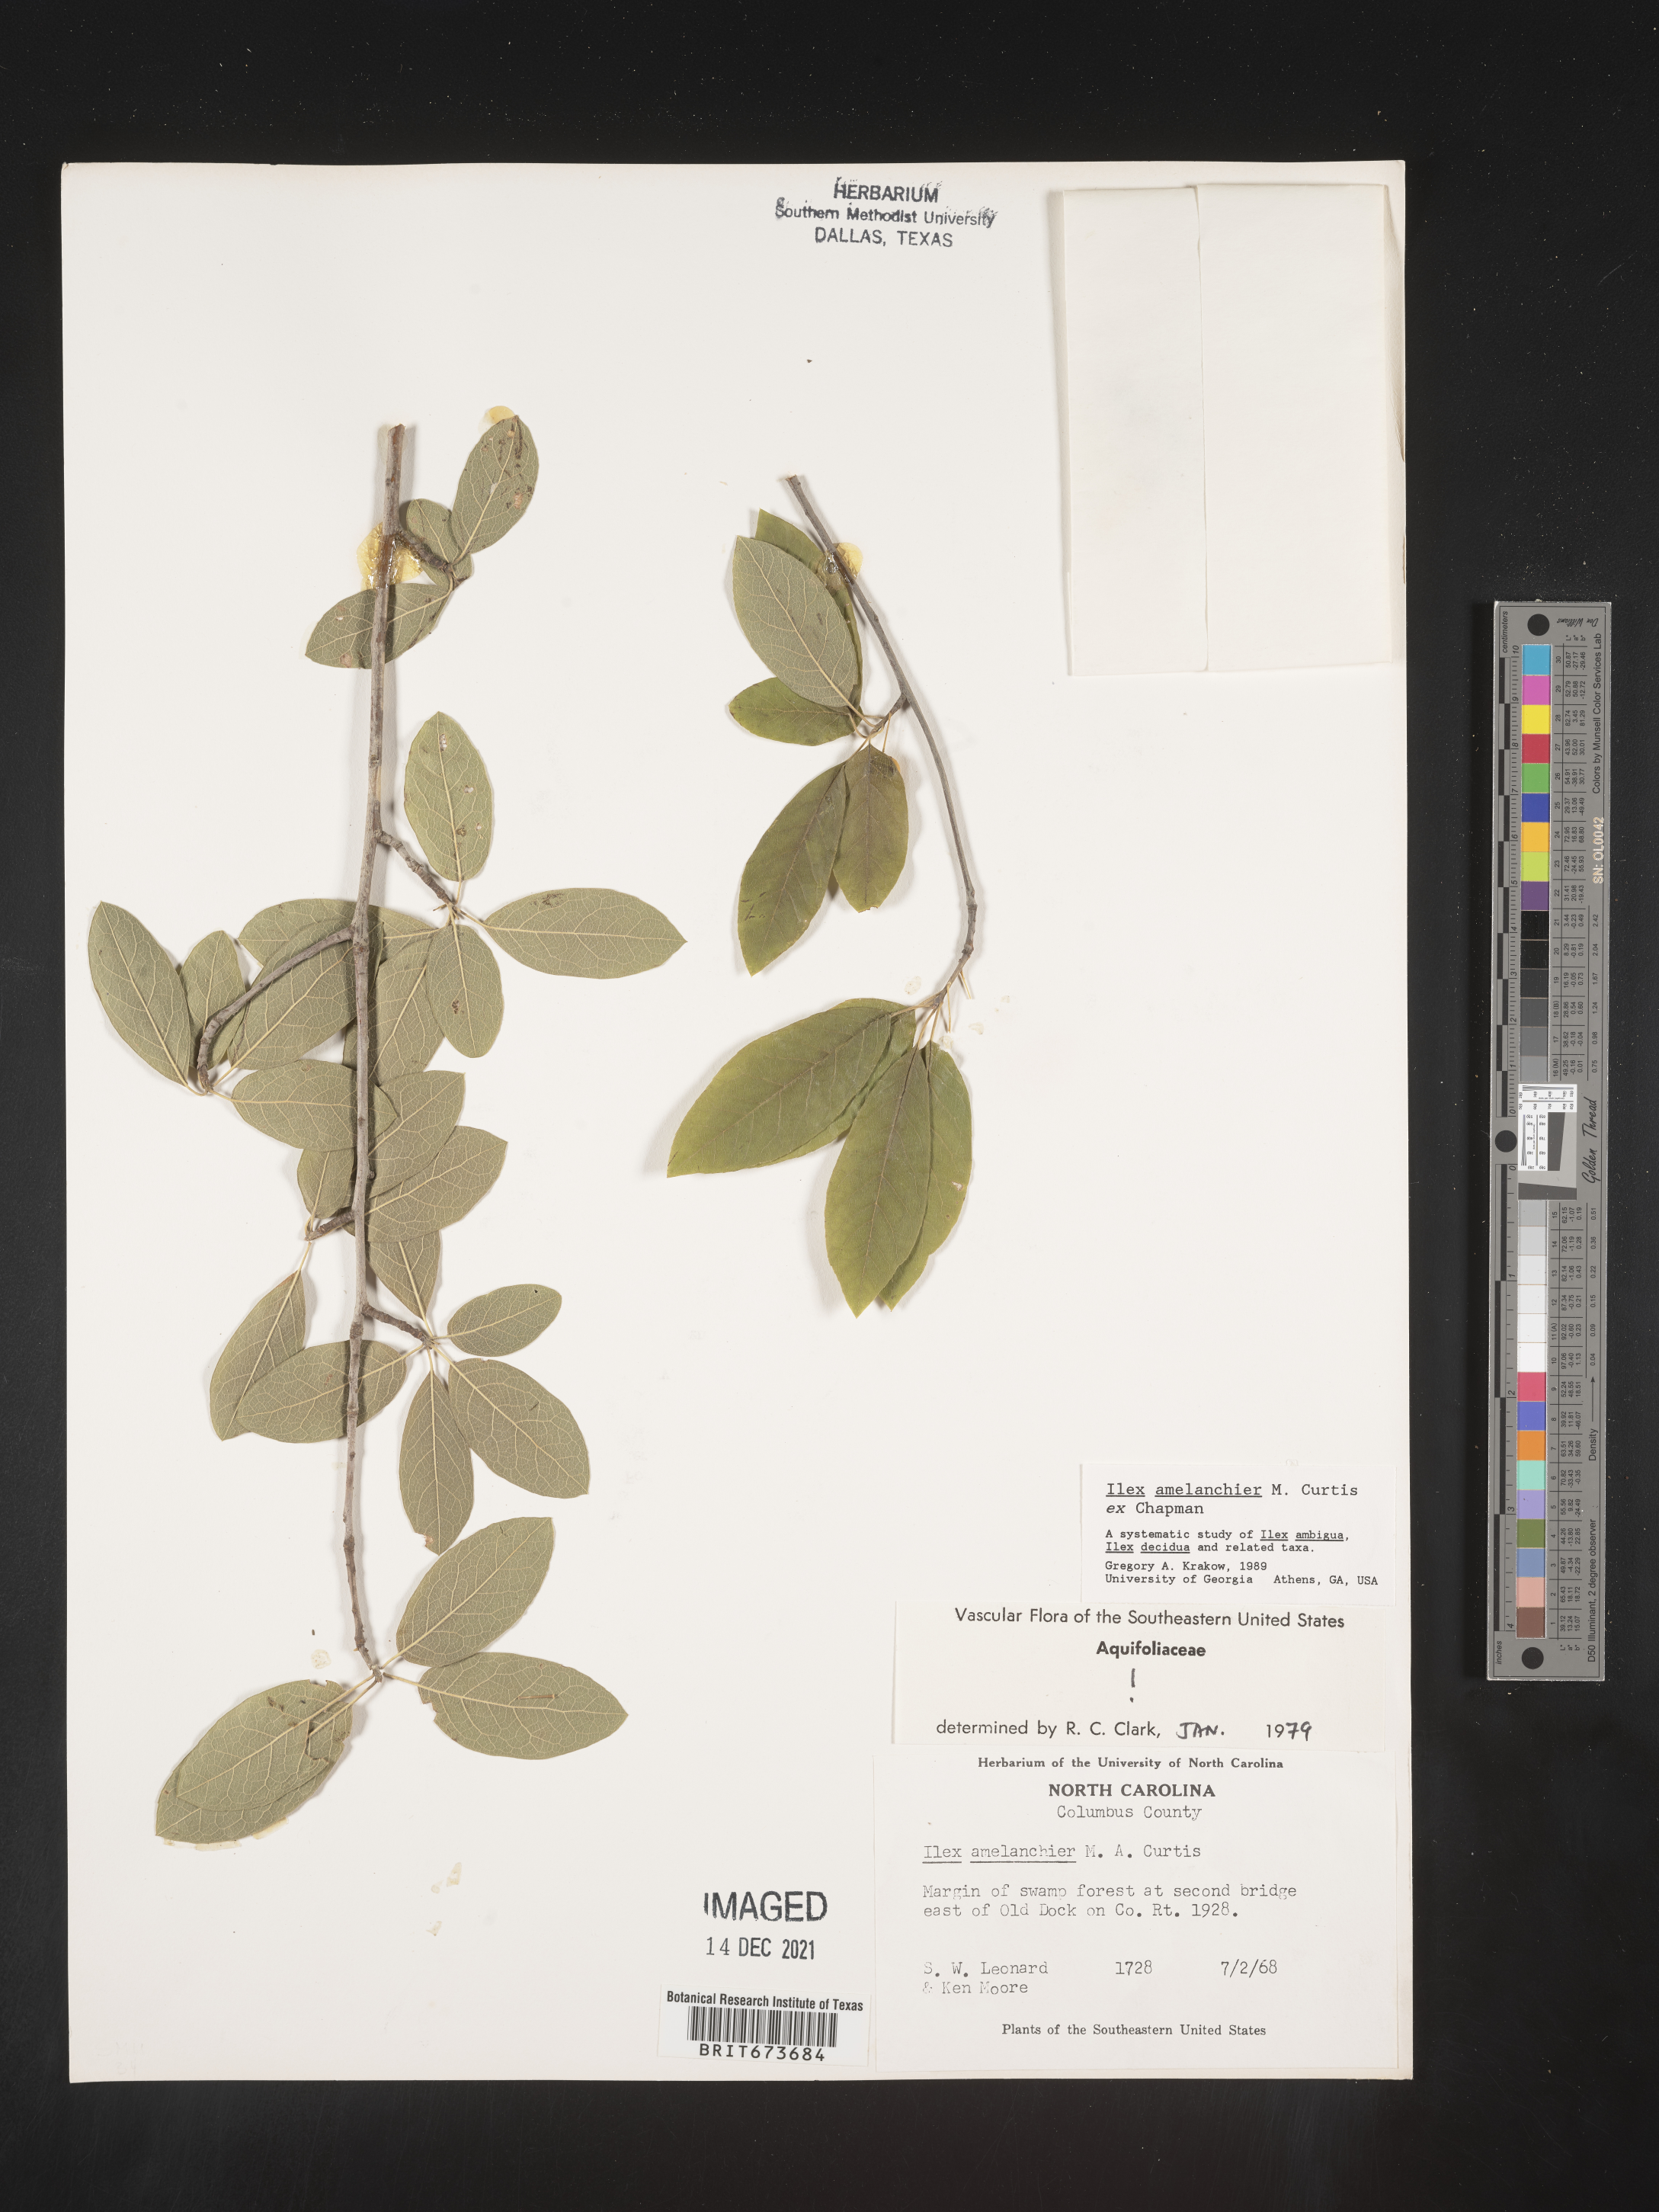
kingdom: Plantae
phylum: Tracheophyta
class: Magnoliopsida
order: Aquifoliales
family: Aquifoliaceae
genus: Ilex
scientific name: Ilex amelanchier
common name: Sarvis holly
